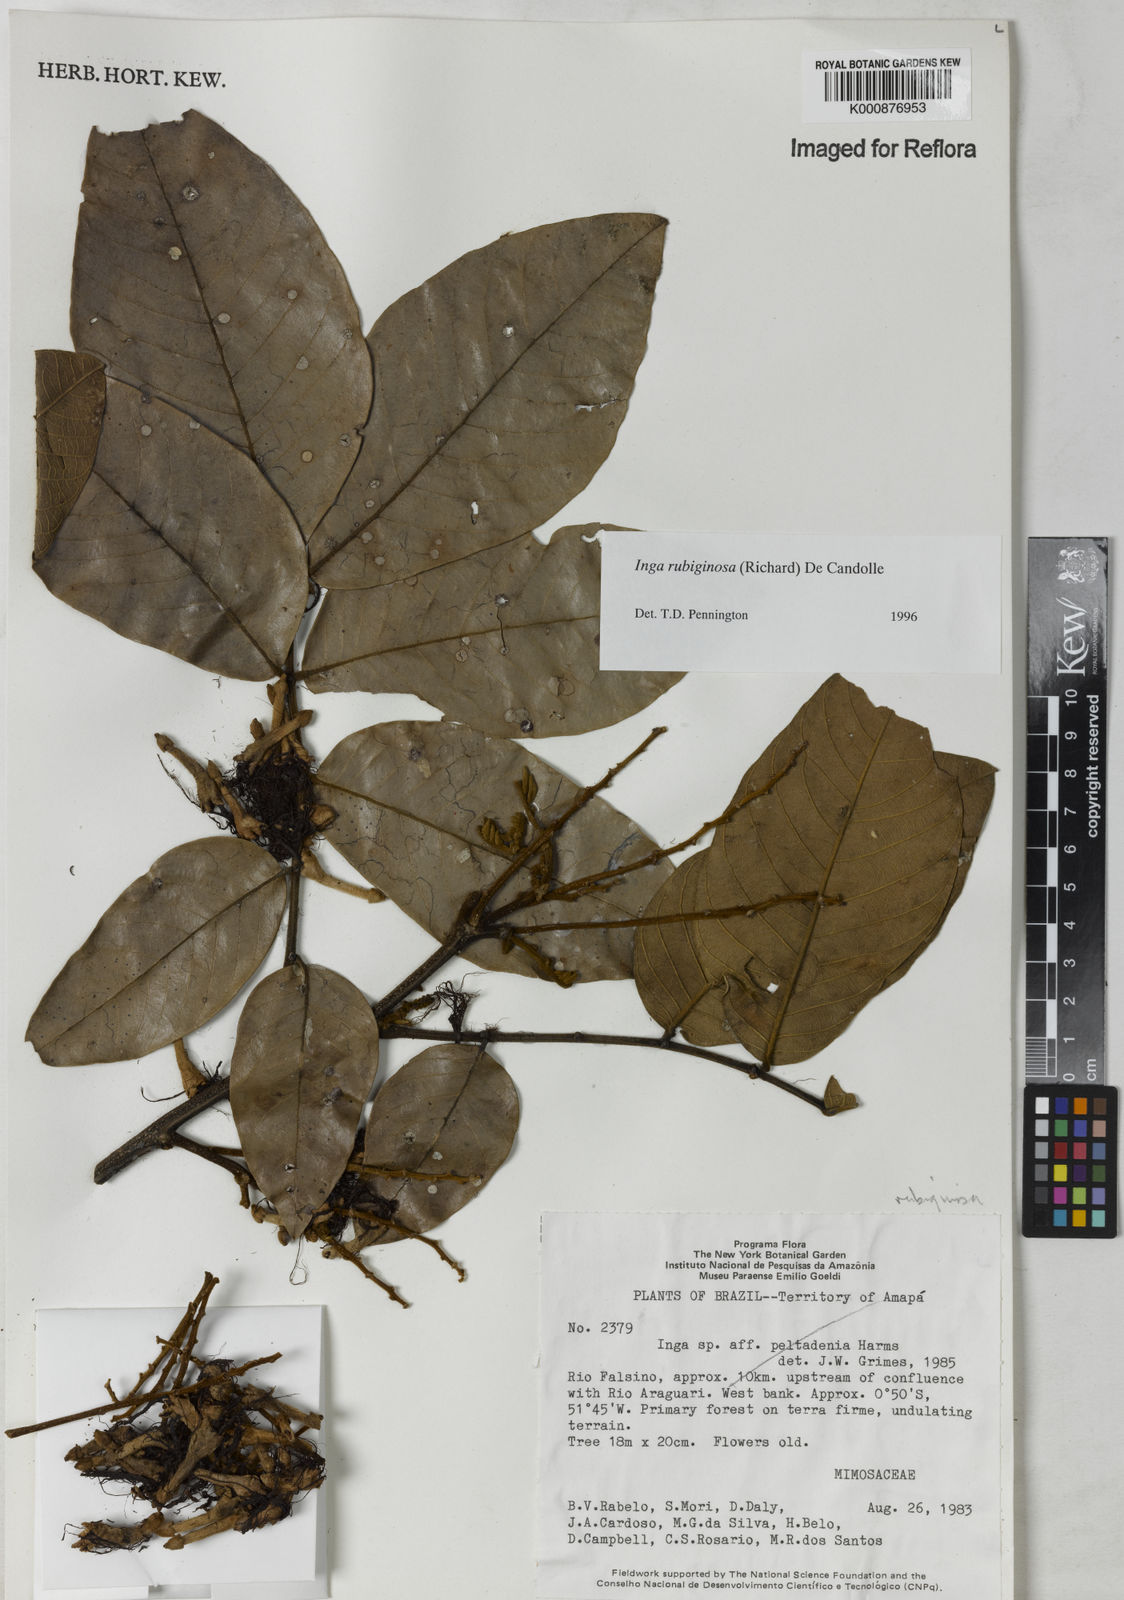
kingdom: Plantae
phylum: Tracheophyta
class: Magnoliopsida
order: Fabales
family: Fabaceae
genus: Inga
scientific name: Inga rubiginosa
